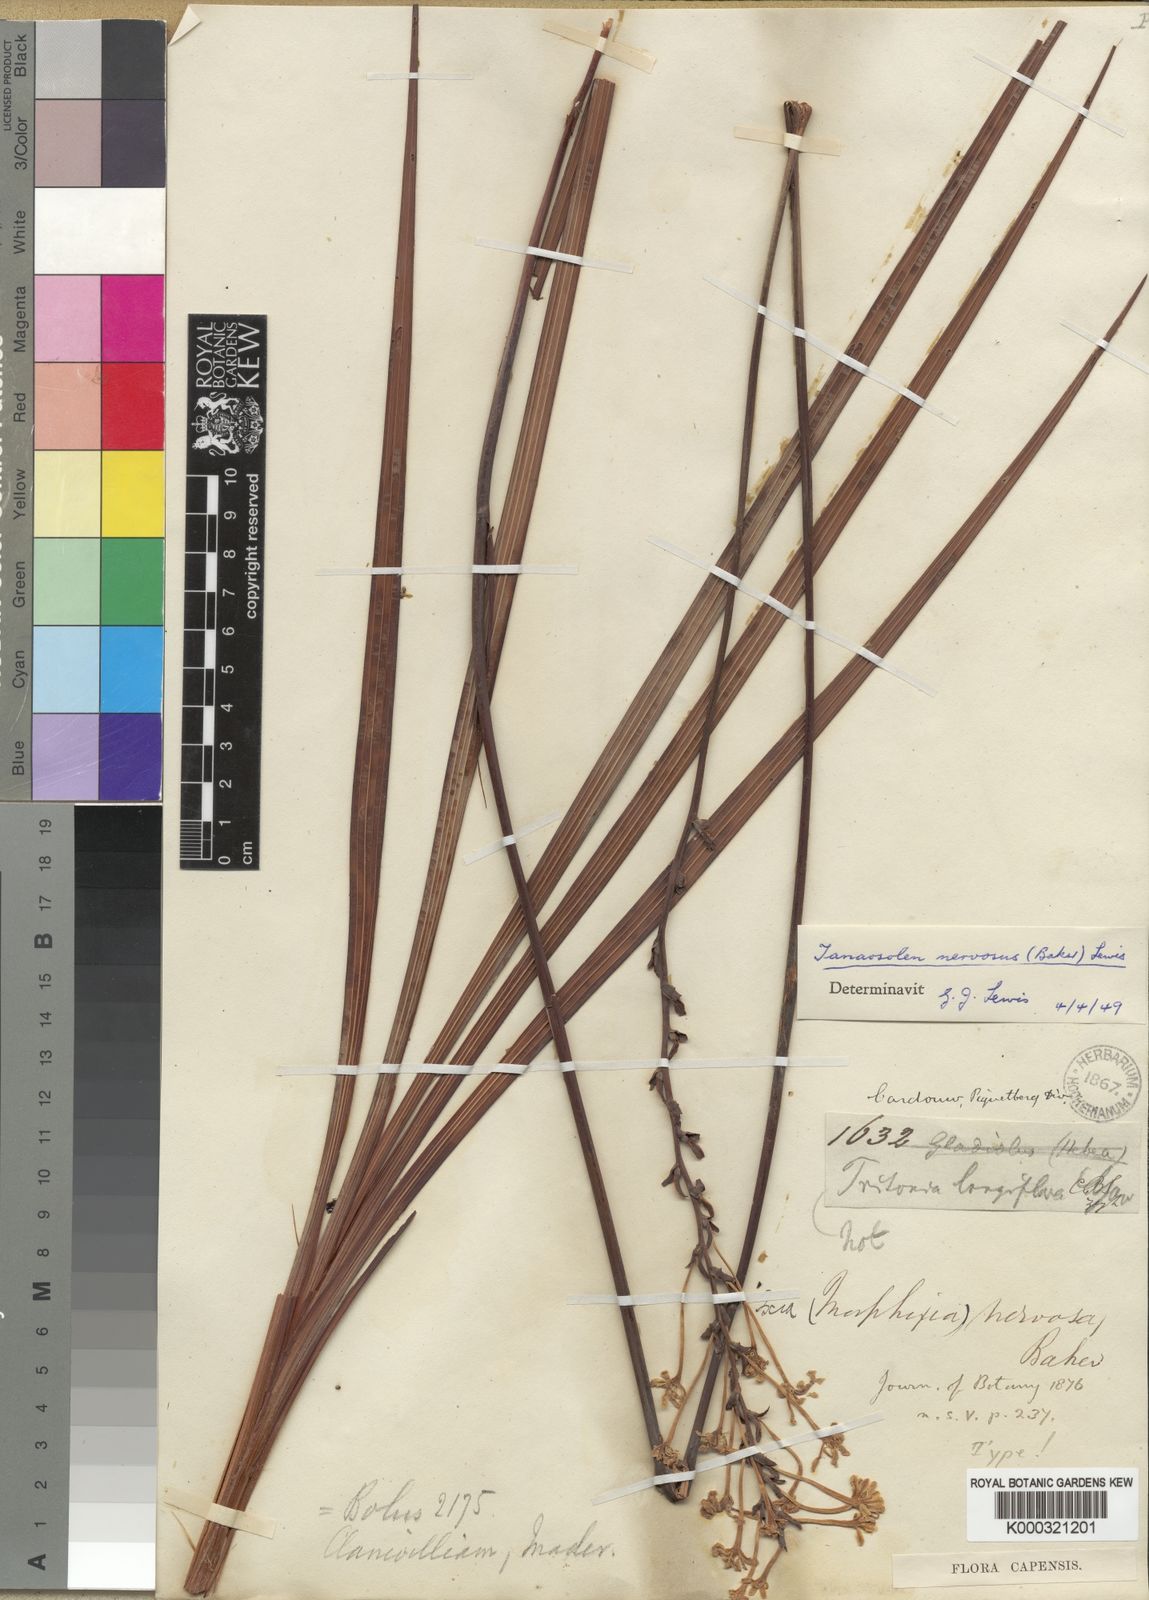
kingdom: Plantae
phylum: Tracheophyta
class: Liliopsida
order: Asparagales
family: Iridaceae
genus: Tritoniopsis
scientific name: Tritoniopsis nervosa
